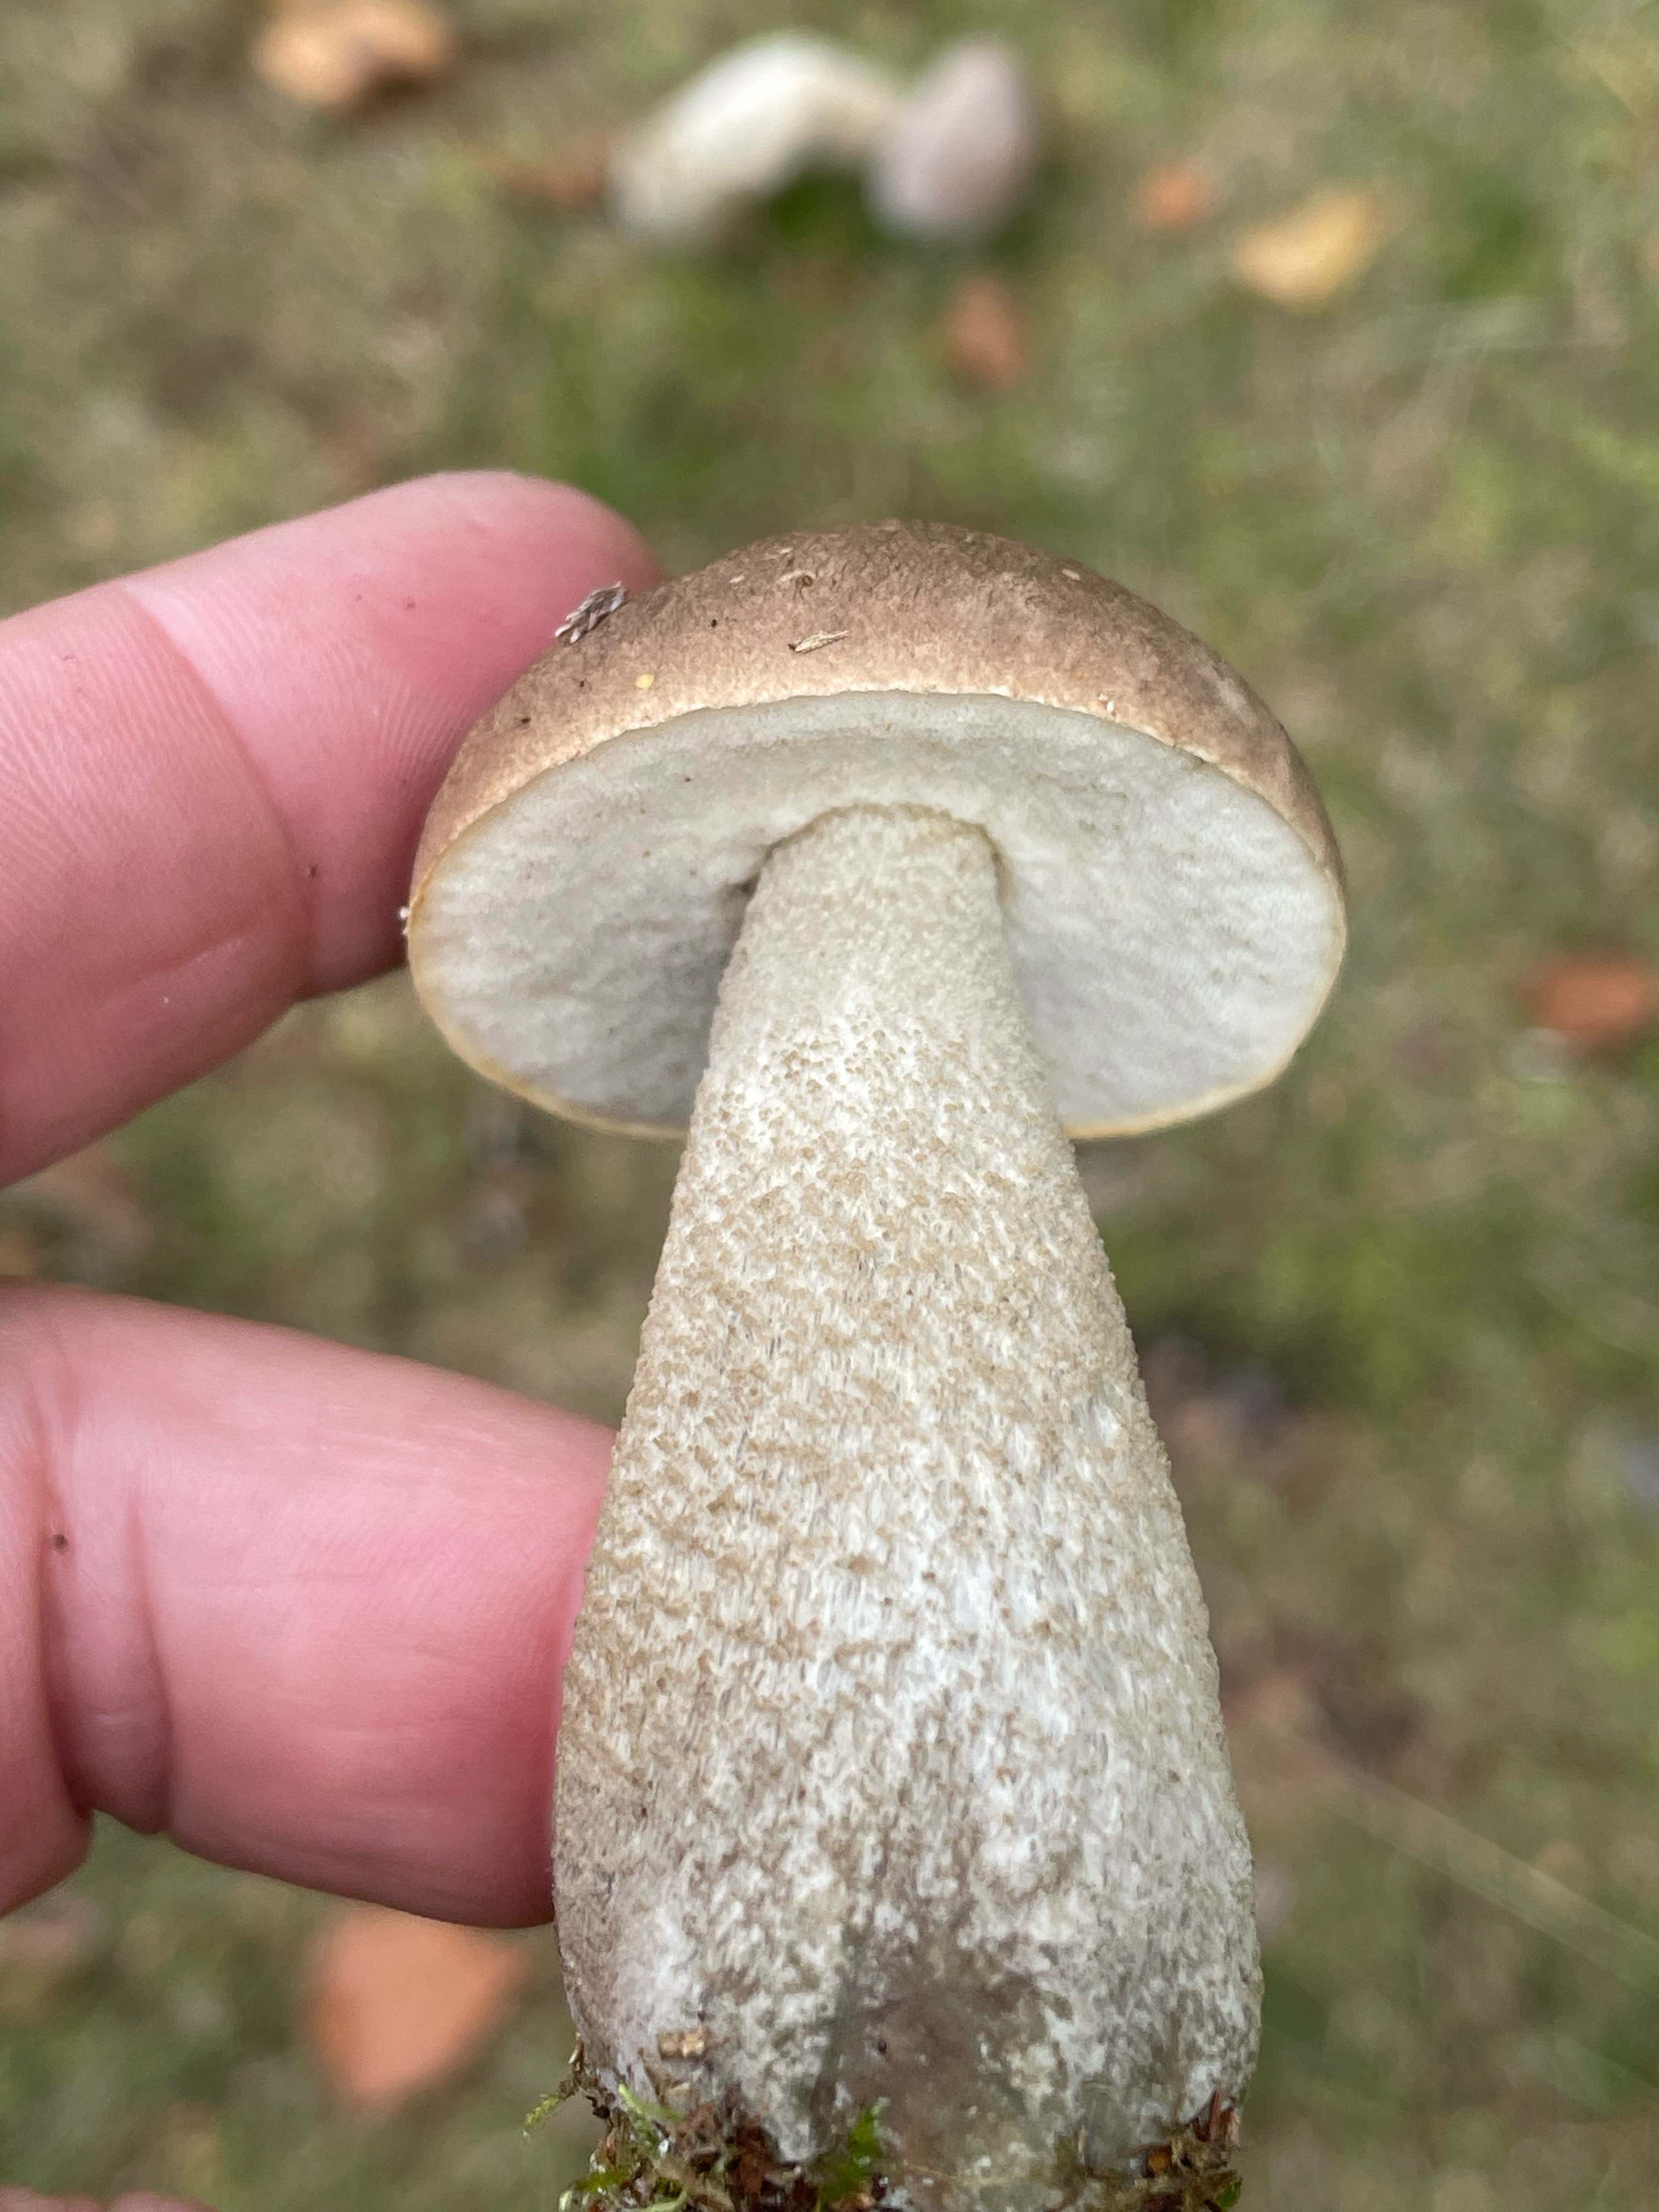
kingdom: Fungi
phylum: Basidiomycota
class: Agaricomycetes
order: Boletales
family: Boletaceae
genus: Leccinum
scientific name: Leccinum
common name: skælrørhat
